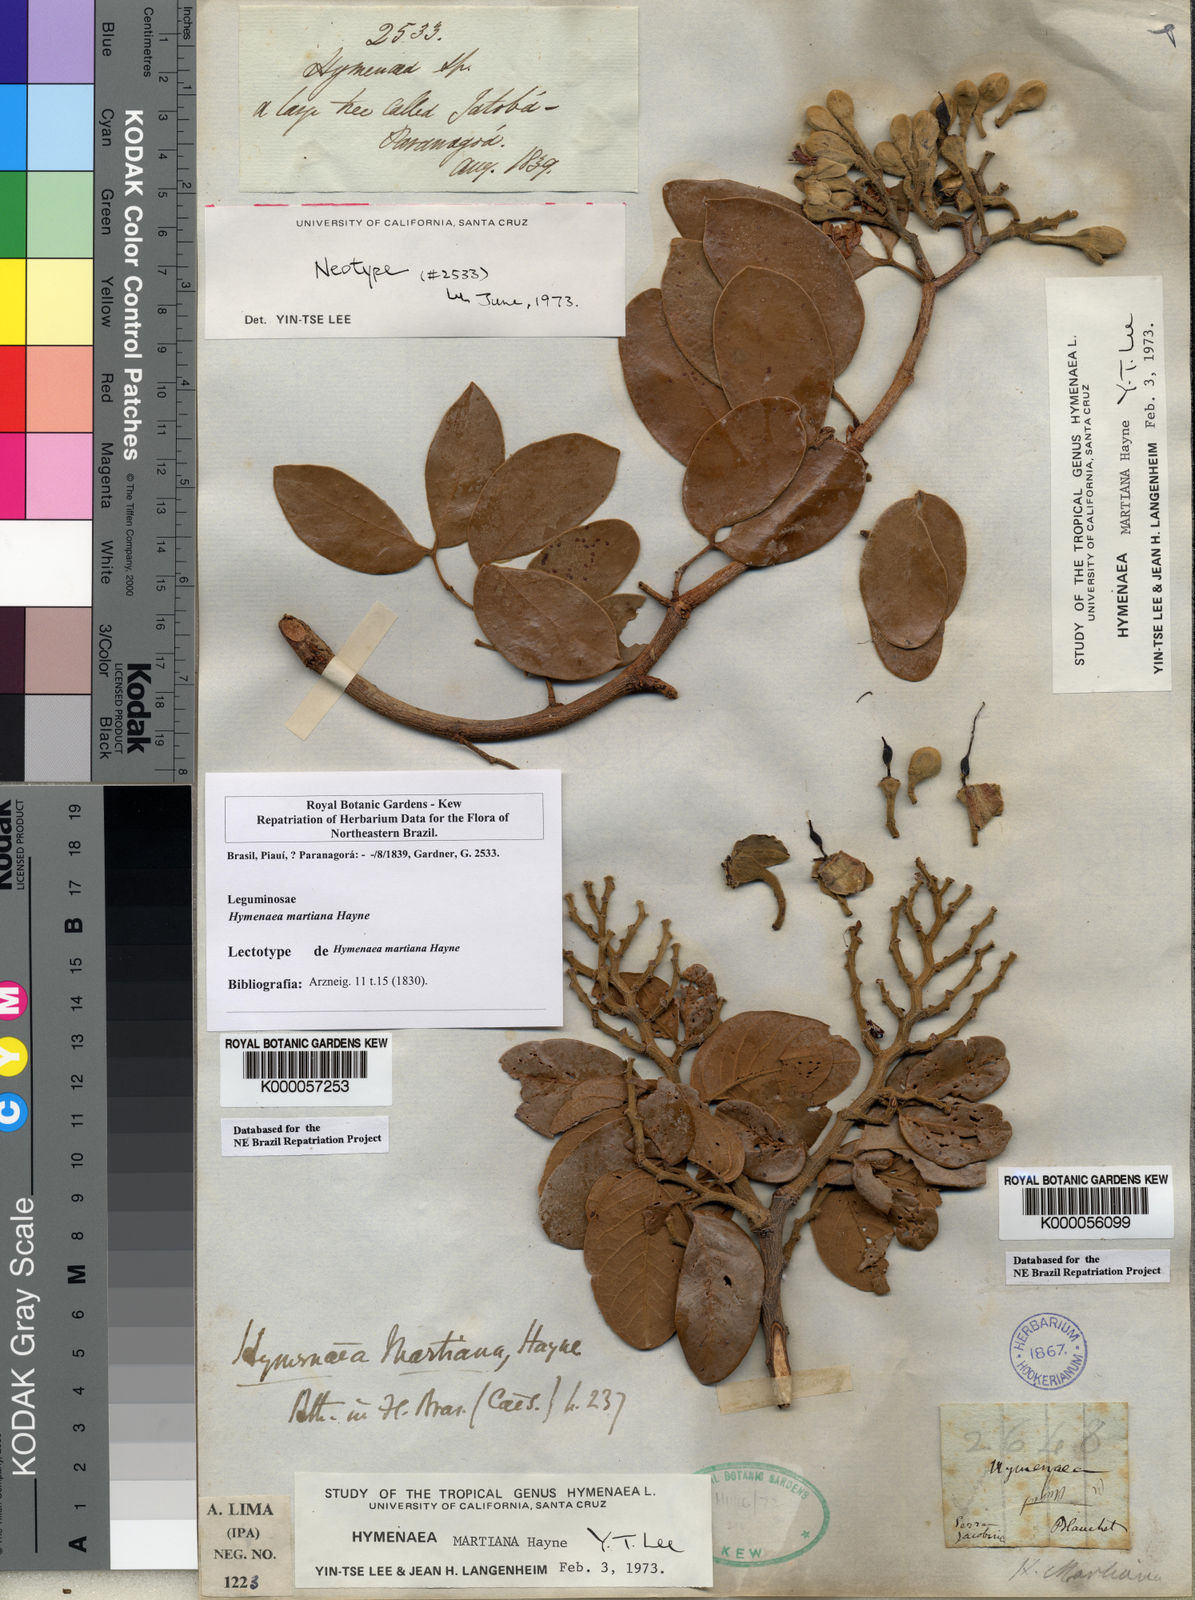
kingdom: Plantae
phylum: Tracheophyta
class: Magnoliopsida
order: Fabales
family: Fabaceae
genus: Hymenaea
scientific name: Hymenaea martiana
